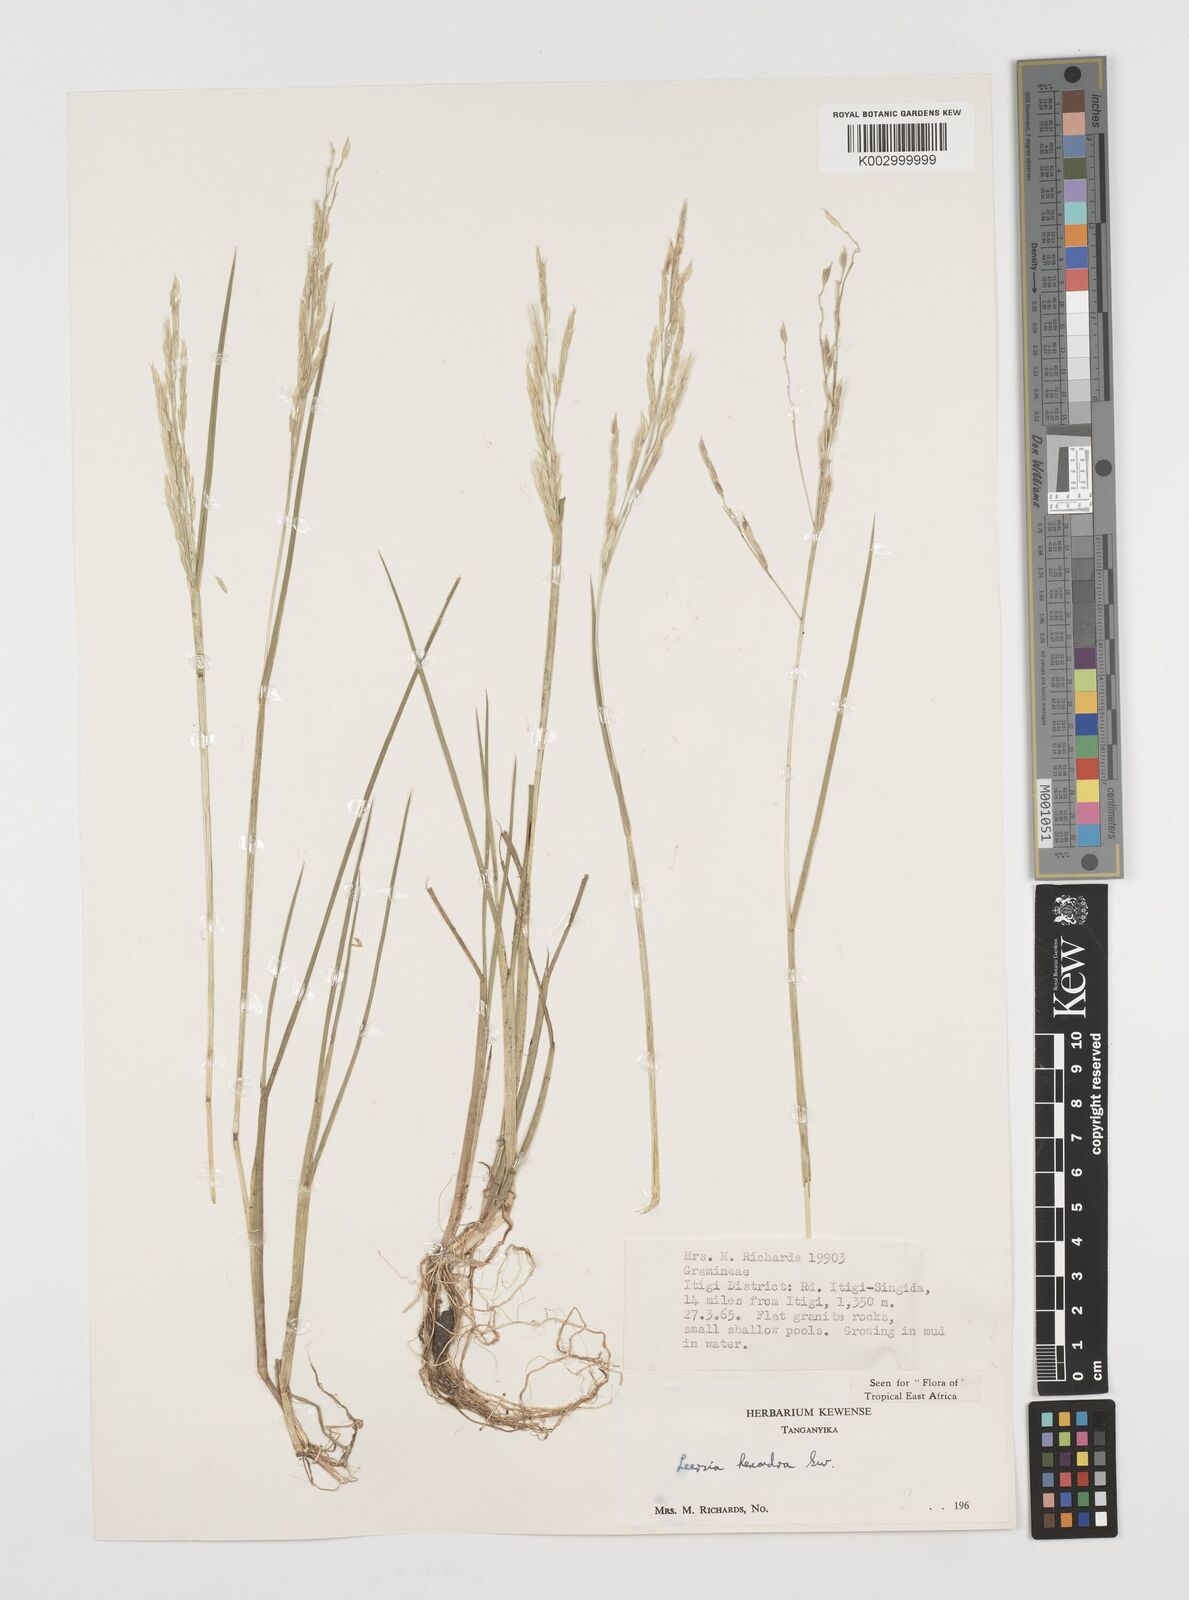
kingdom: Plantae
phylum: Tracheophyta
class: Liliopsida
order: Poales
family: Poaceae
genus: Leersia
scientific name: Leersia hexandra
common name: Southern cut grass
